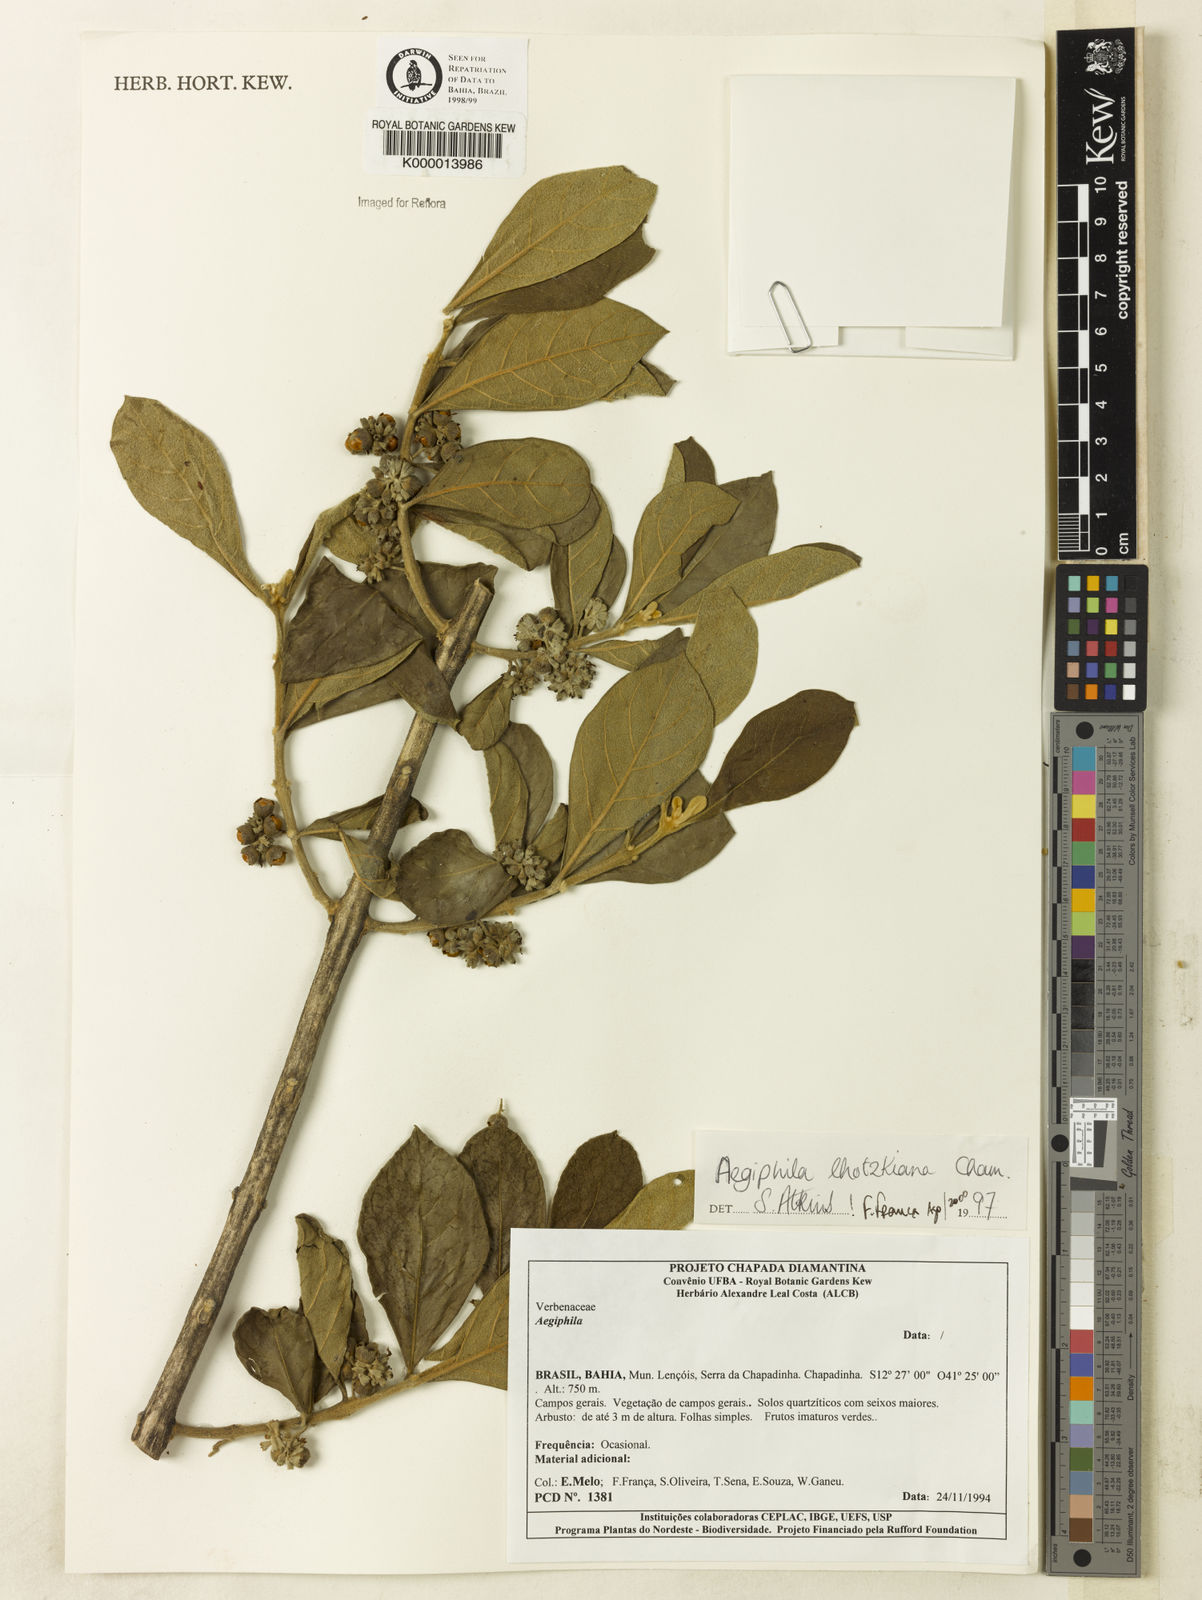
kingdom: Plantae
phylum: Tracheophyta
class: Magnoliopsida
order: Lamiales
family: Lamiaceae
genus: Aegiphila
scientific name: Aegiphila verticillata
